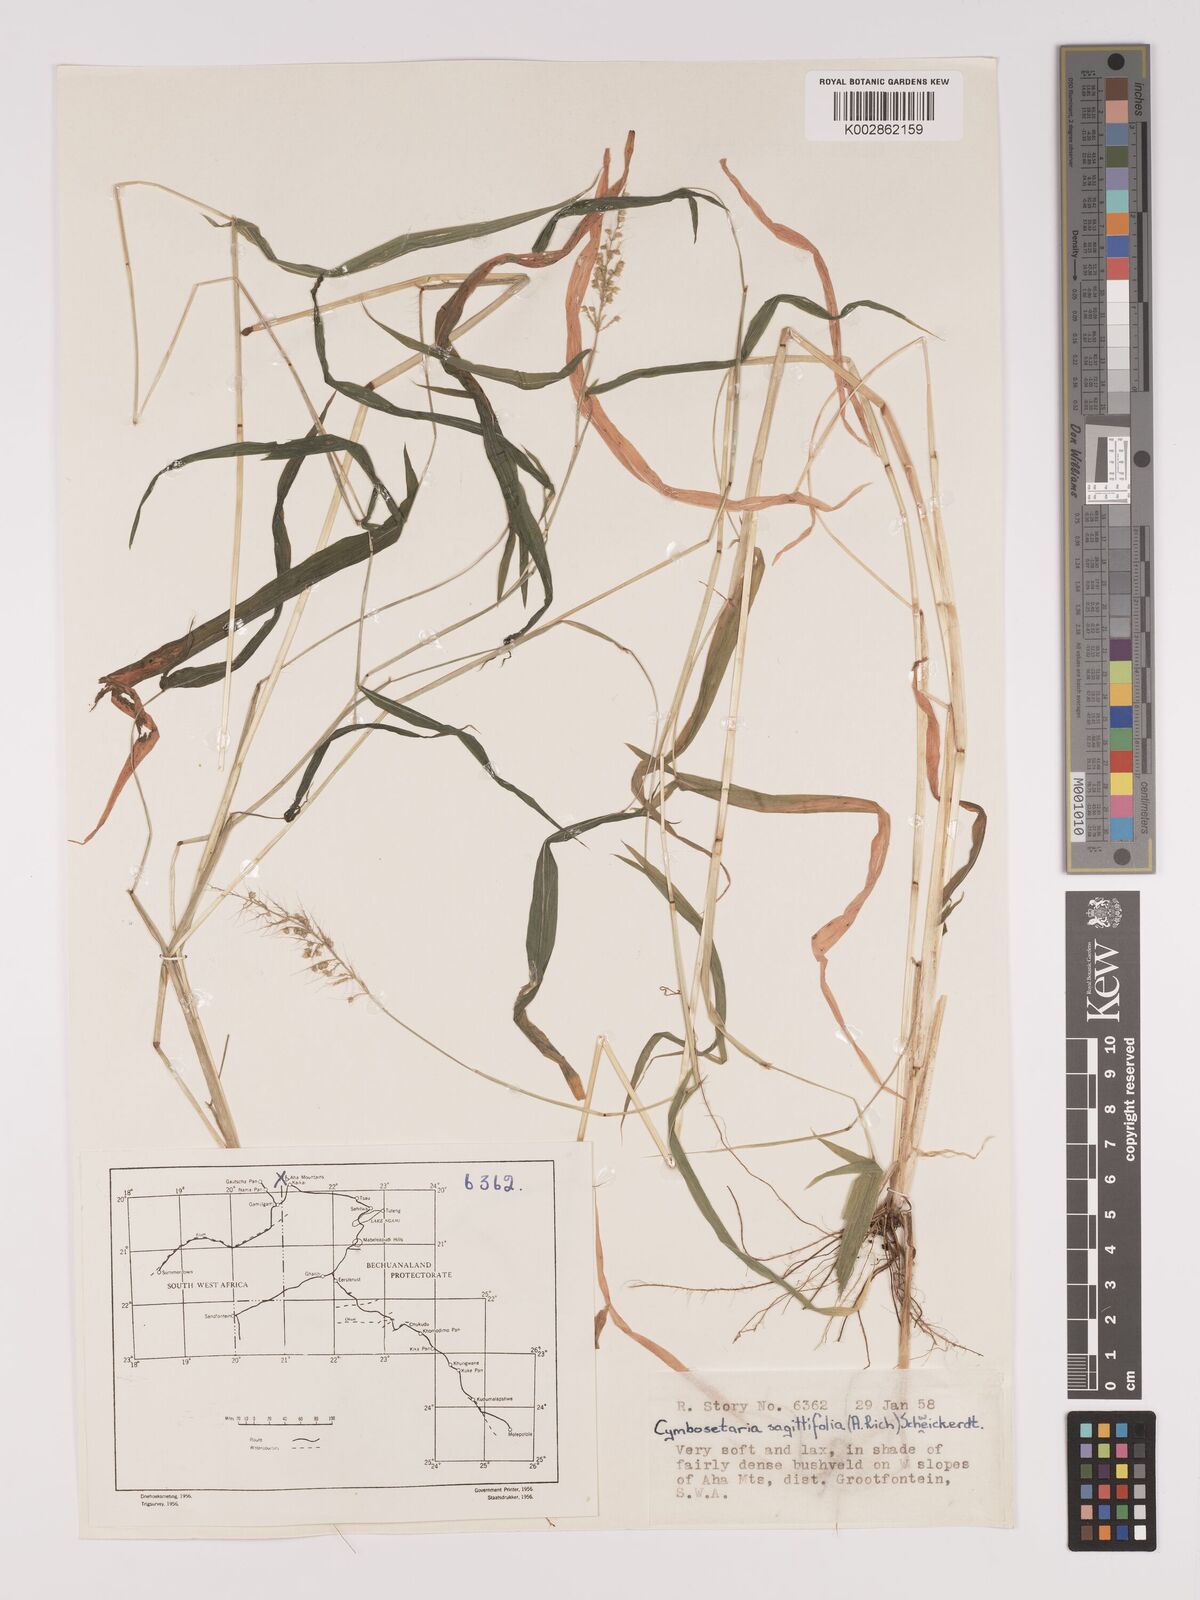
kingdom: Plantae
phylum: Tracheophyta
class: Liliopsida
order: Poales
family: Poaceae
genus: Setaria
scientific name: Setaria sagittifolia
